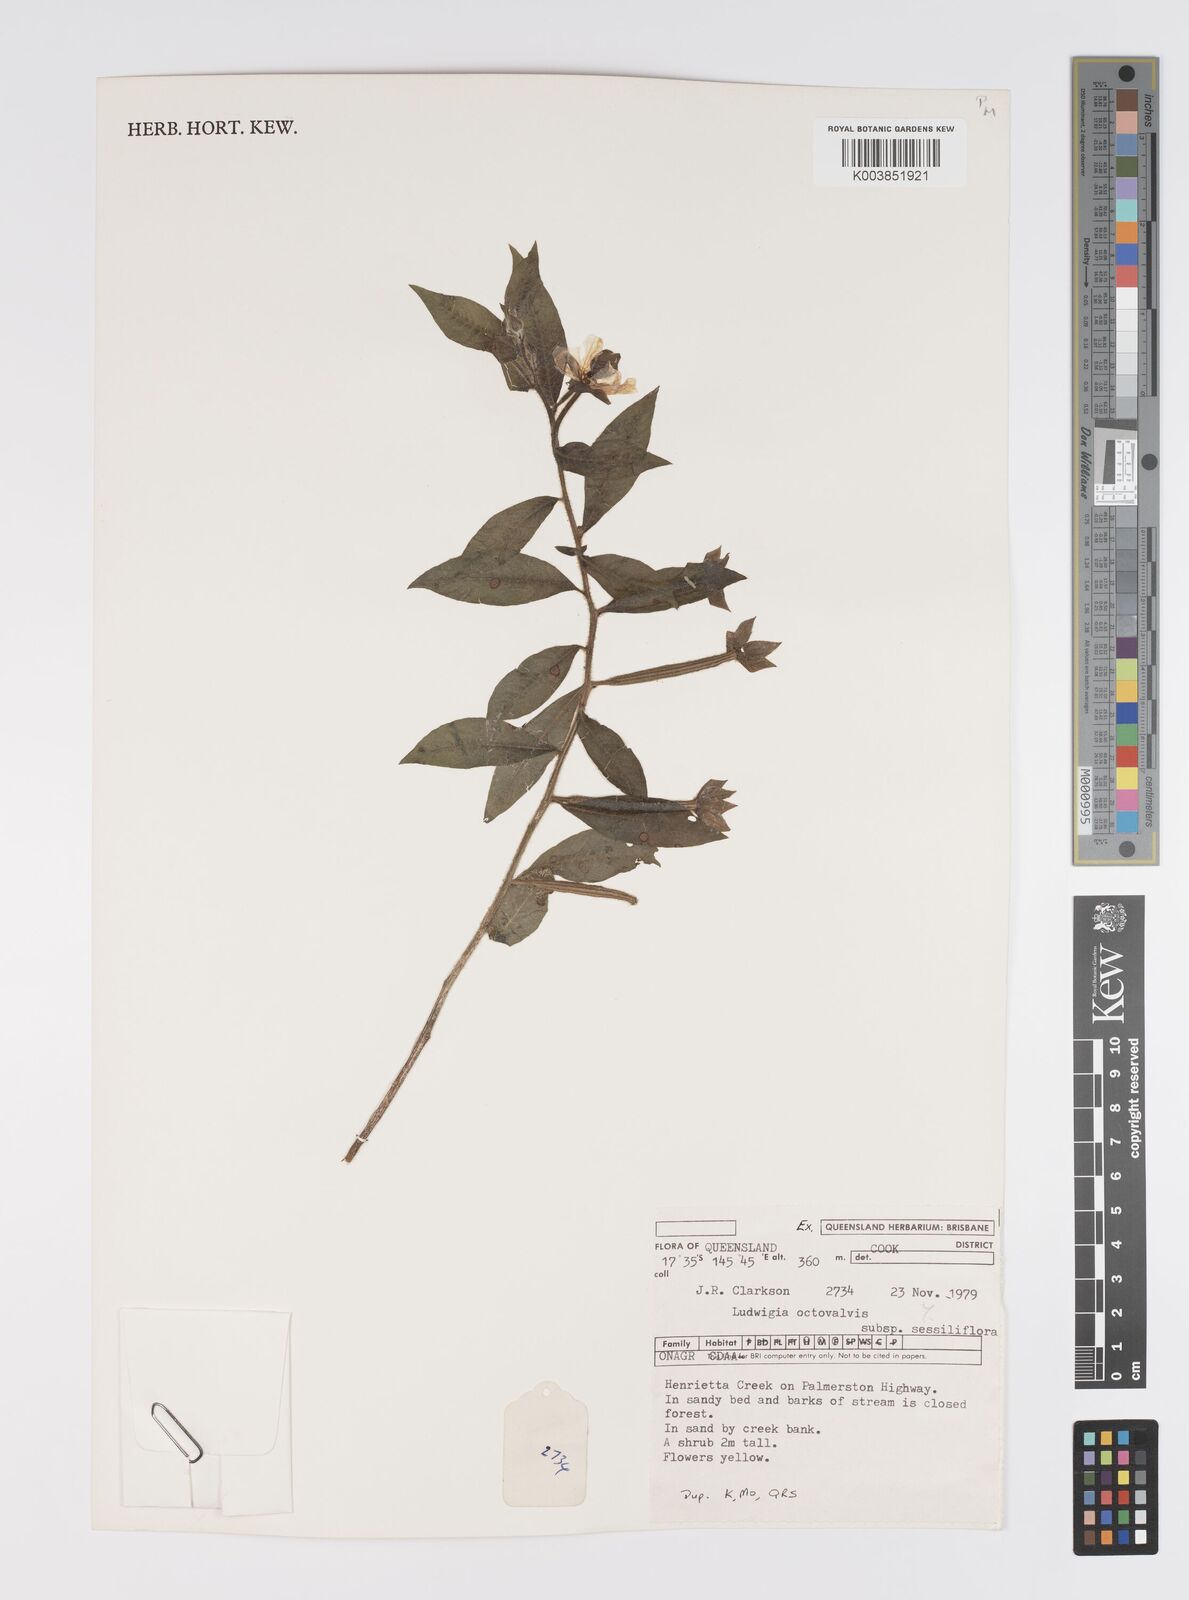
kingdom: Plantae
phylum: Tracheophyta
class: Magnoliopsida
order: Myrtales
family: Onagraceae
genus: Ludwigia
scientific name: Ludwigia octovalvis
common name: Water-primrose
